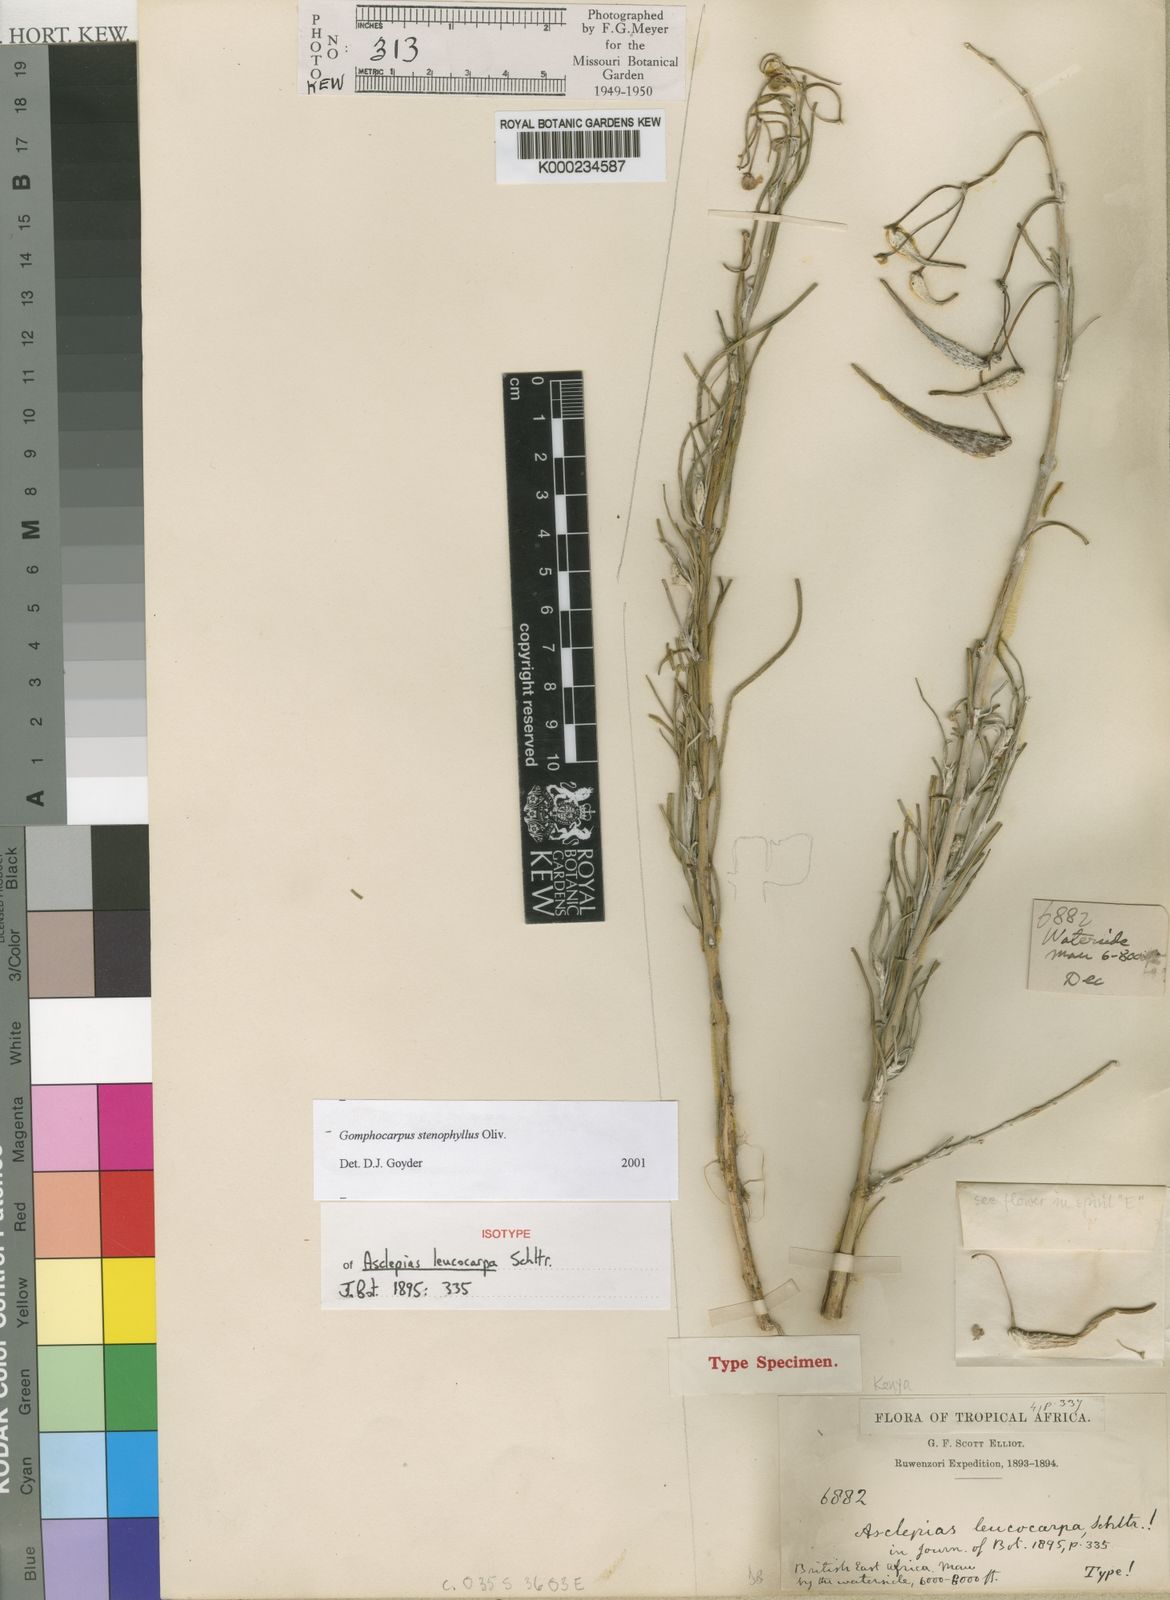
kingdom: Plantae
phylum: Tracheophyta
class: Magnoliopsida
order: Gentianales
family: Apocynaceae
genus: Gomphocarpus
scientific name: Gomphocarpus stenophyllus
